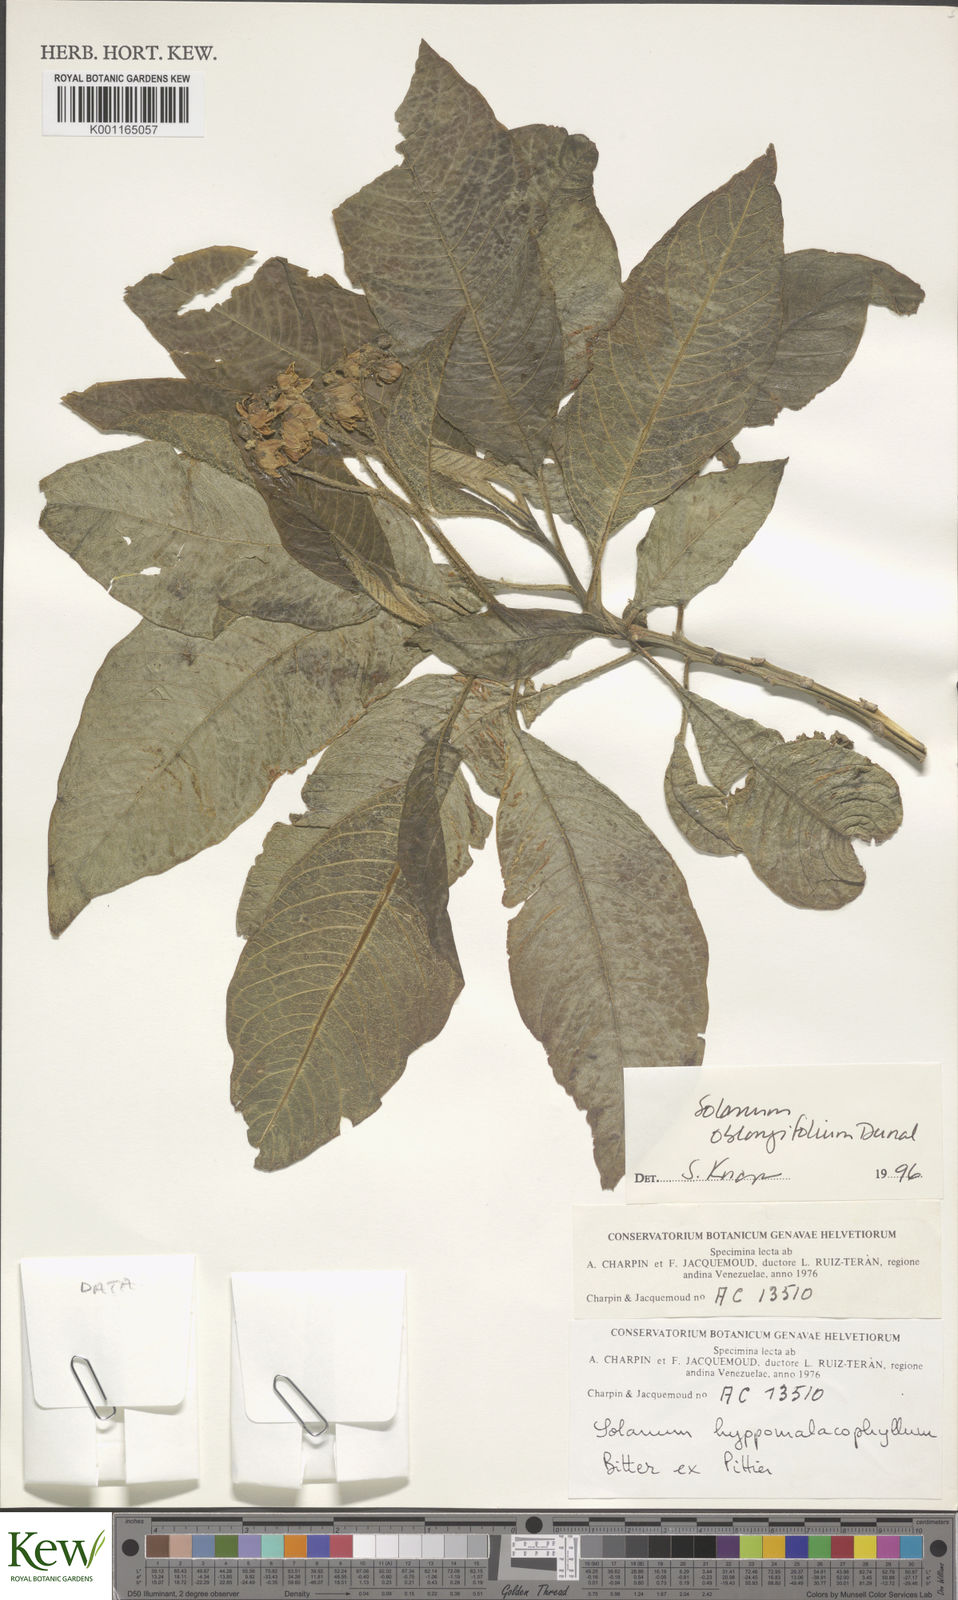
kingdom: Plantae
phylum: Tracheophyta
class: Magnoliopsida
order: Solanales
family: Solanaceae
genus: Solanum
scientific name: Solanum oblongifolium
